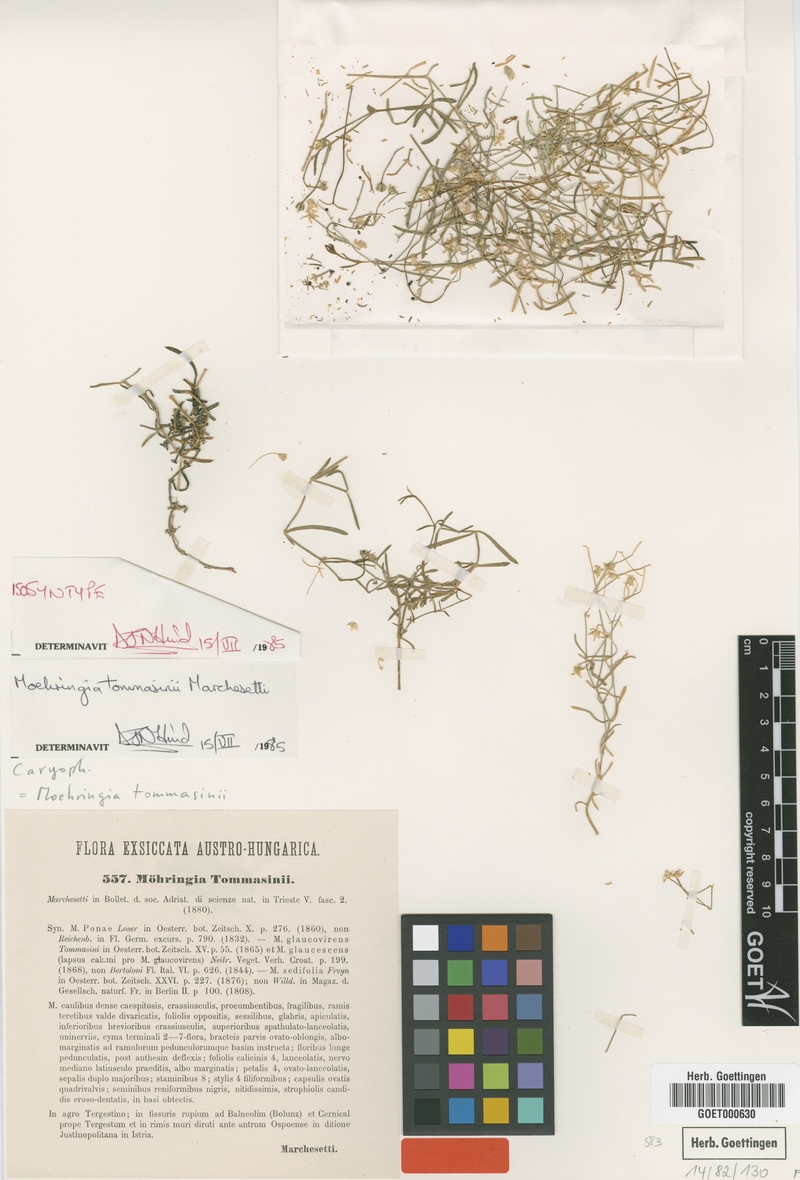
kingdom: Plantae
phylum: Tracheophyta
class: Magnoliopsida
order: Caryophyllales
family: Caryophyllaceae
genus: Moehringia
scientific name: Moehringia tommasinii
